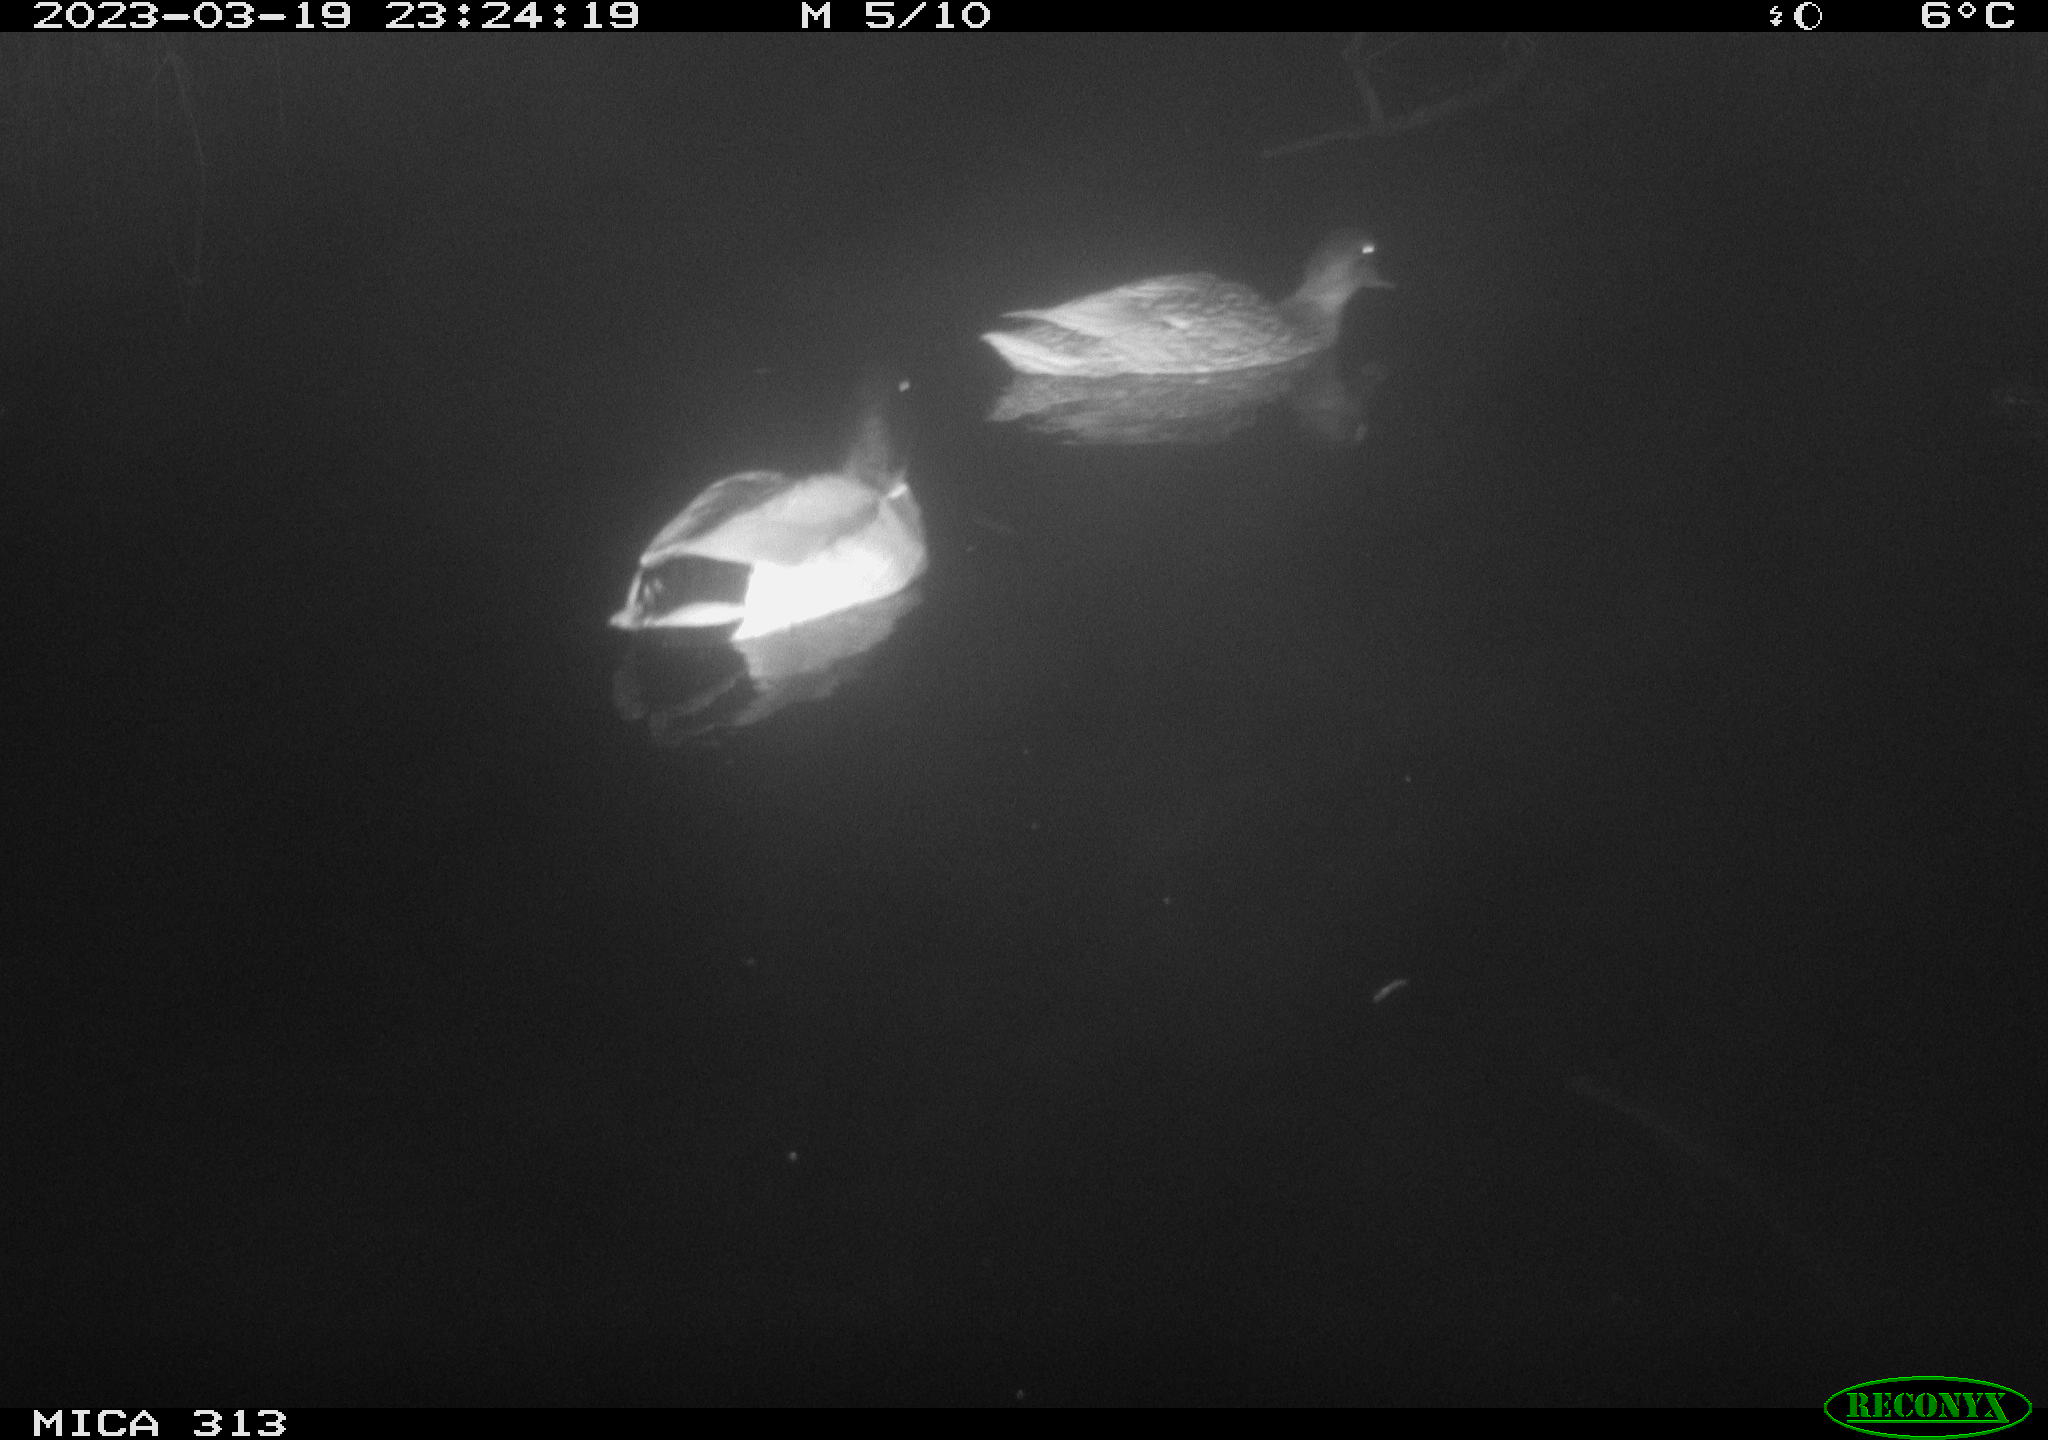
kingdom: Animalia
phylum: Chordata
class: Aves
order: Anseriformes
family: Anatidae
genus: Anas
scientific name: Anas
